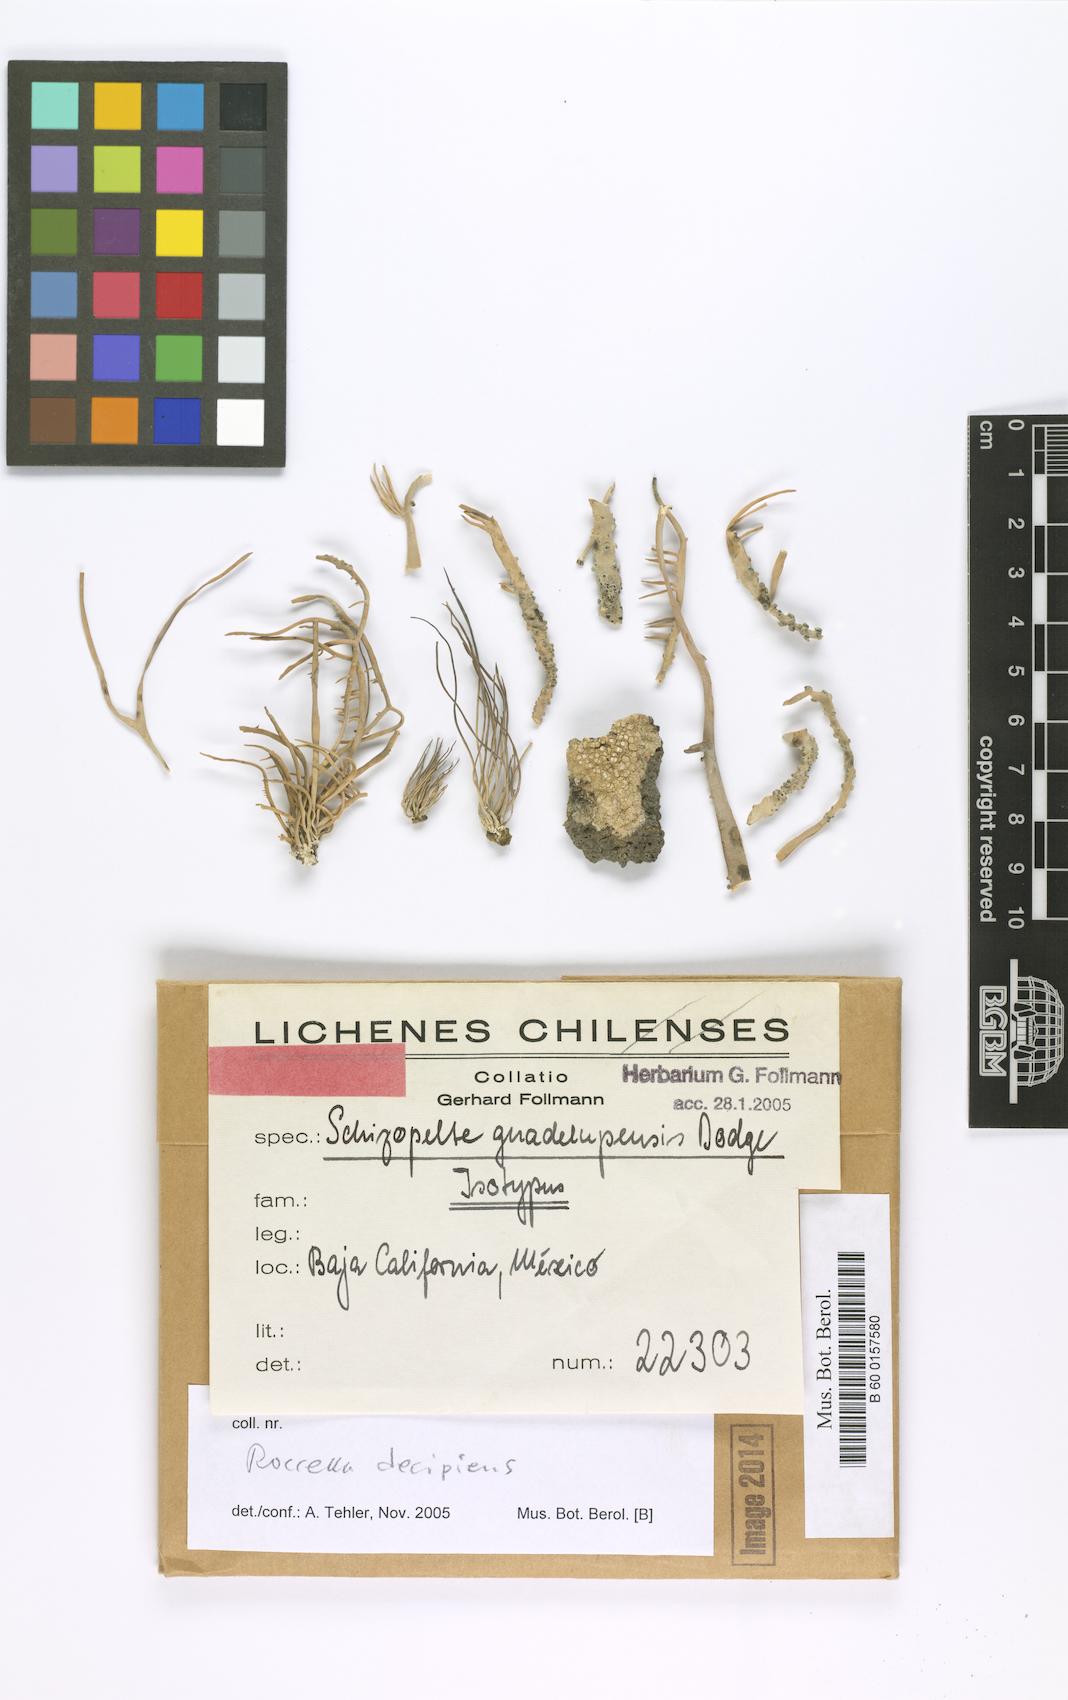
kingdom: Fungi
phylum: Ascomycota
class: Arthoniomycetes
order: Arthoniales
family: Opegraphaceae
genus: Schizopelte
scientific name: Schizopelte
